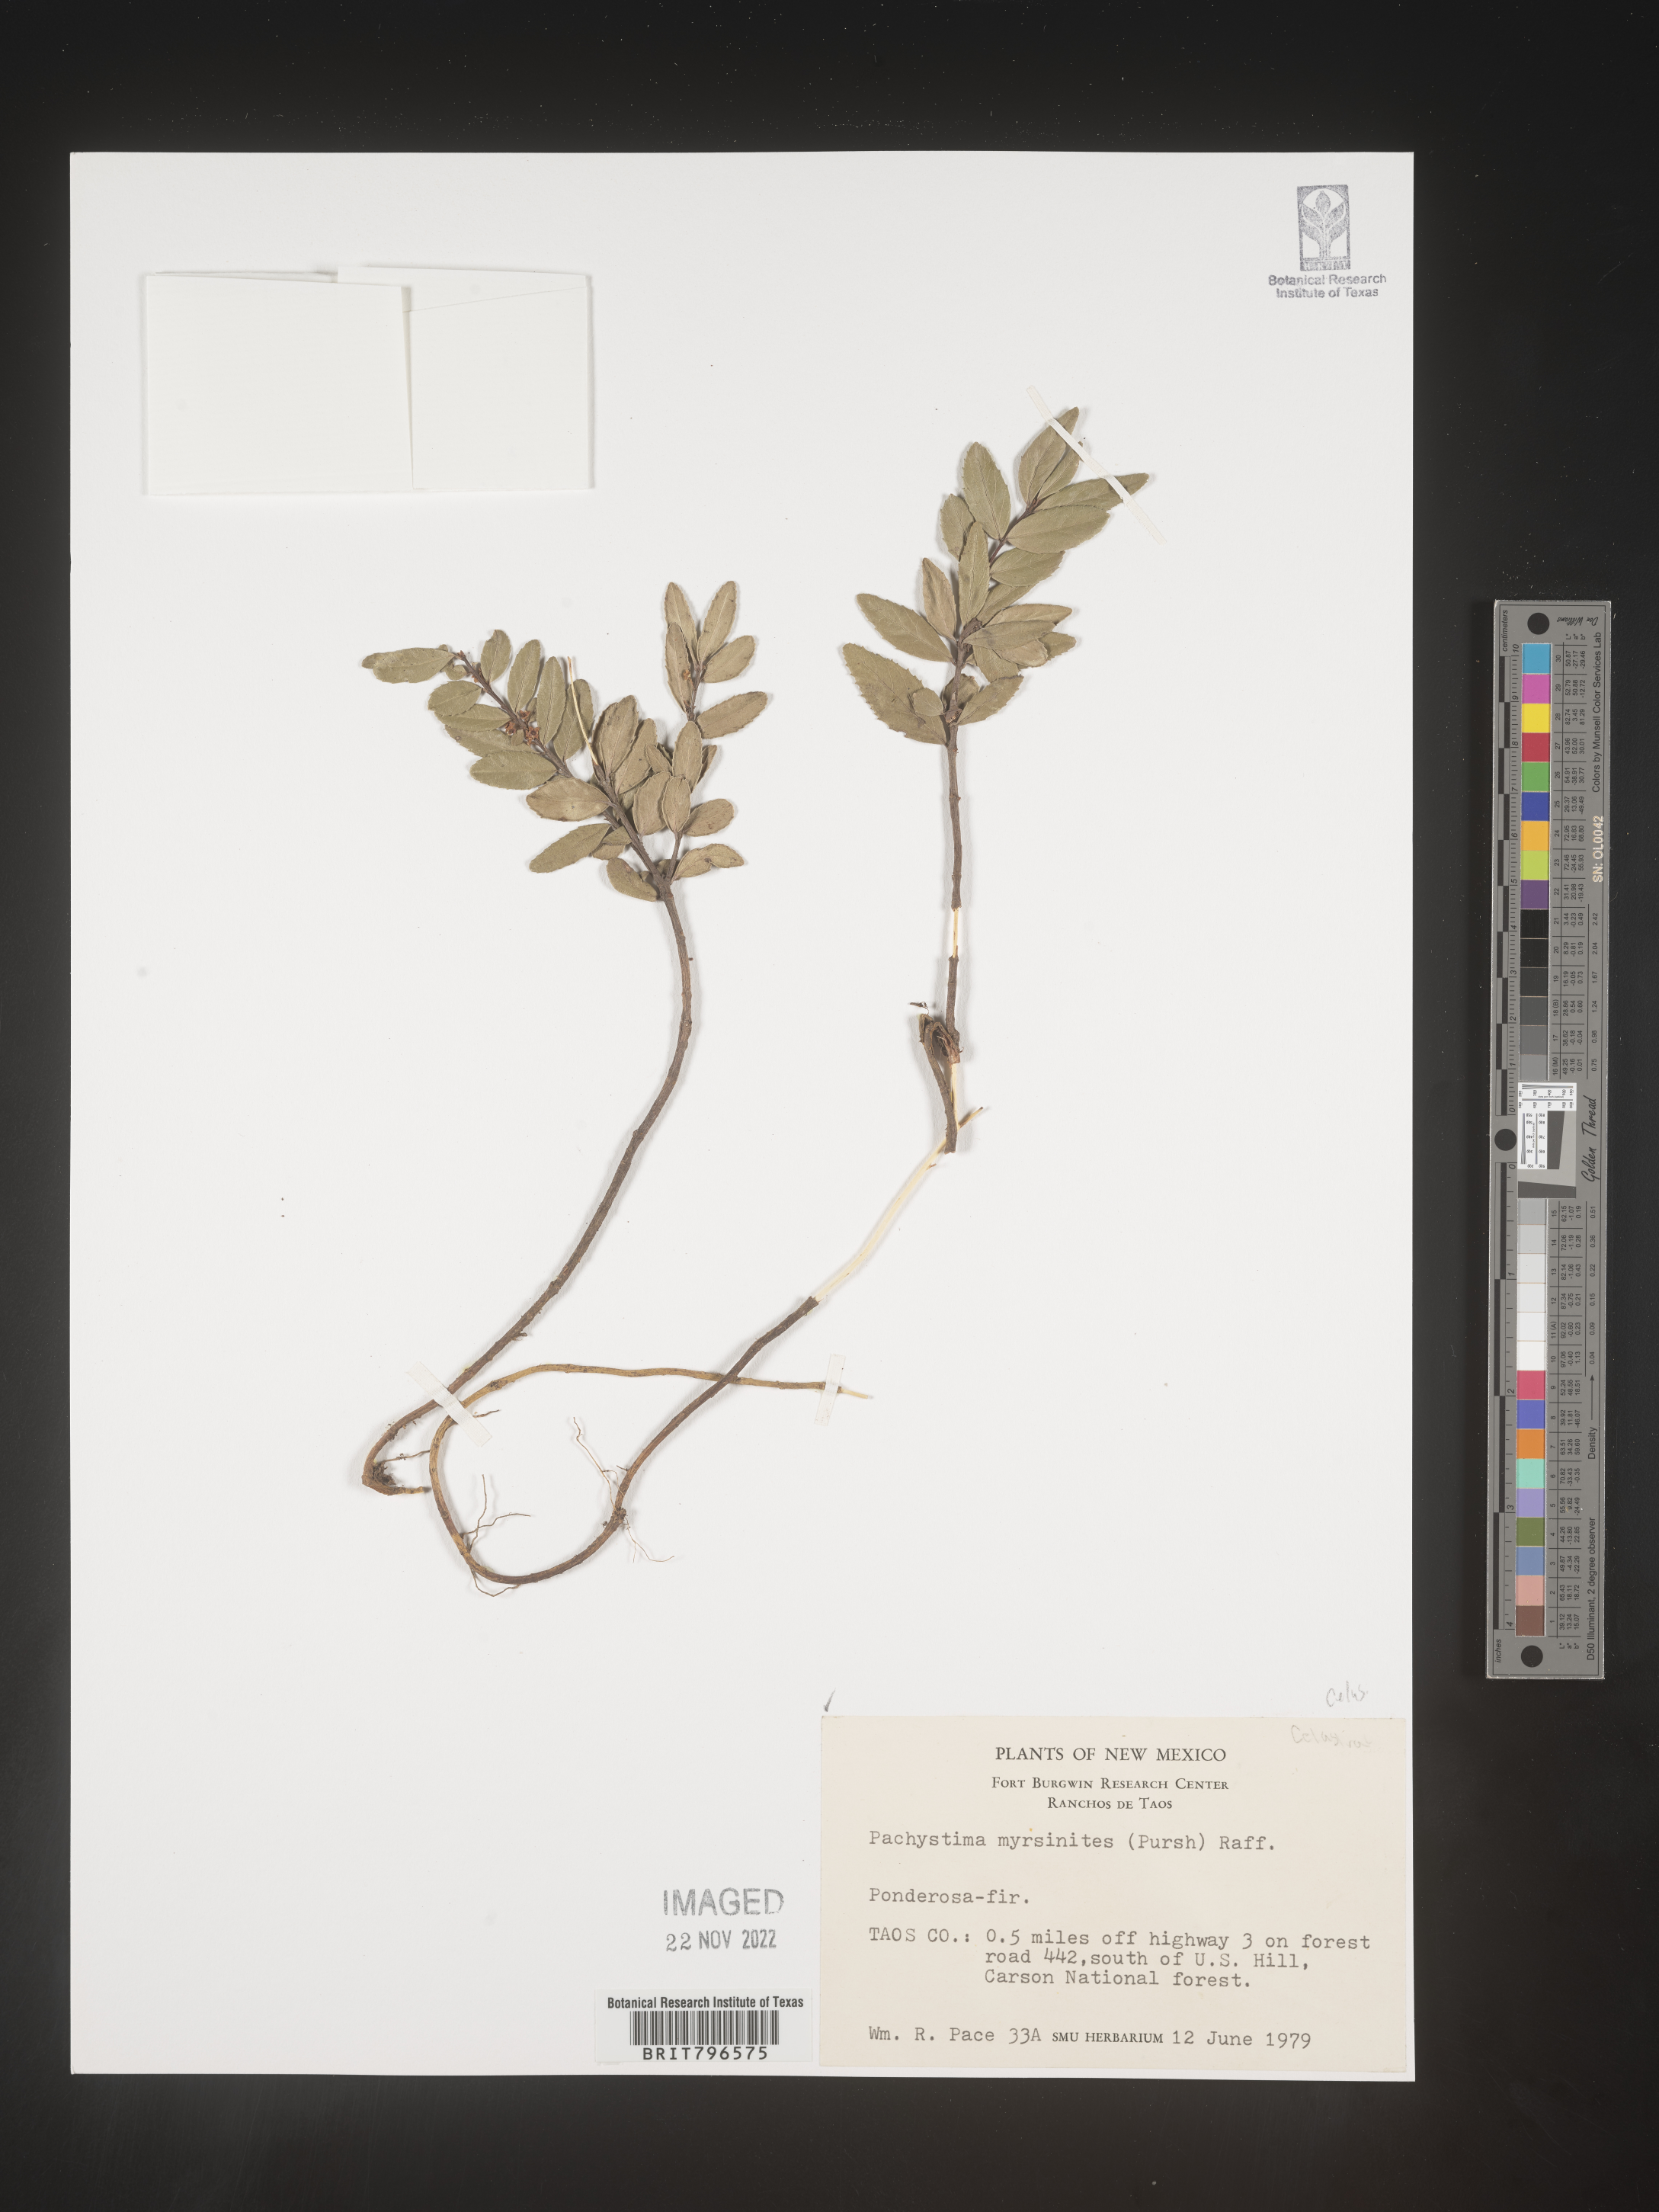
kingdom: Plantae
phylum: Tracheophyta
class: Magnoliopsida
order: Celastrales
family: Celastraceae
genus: Paxistima
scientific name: Paxistima myrsinites
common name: Mountain-lover
